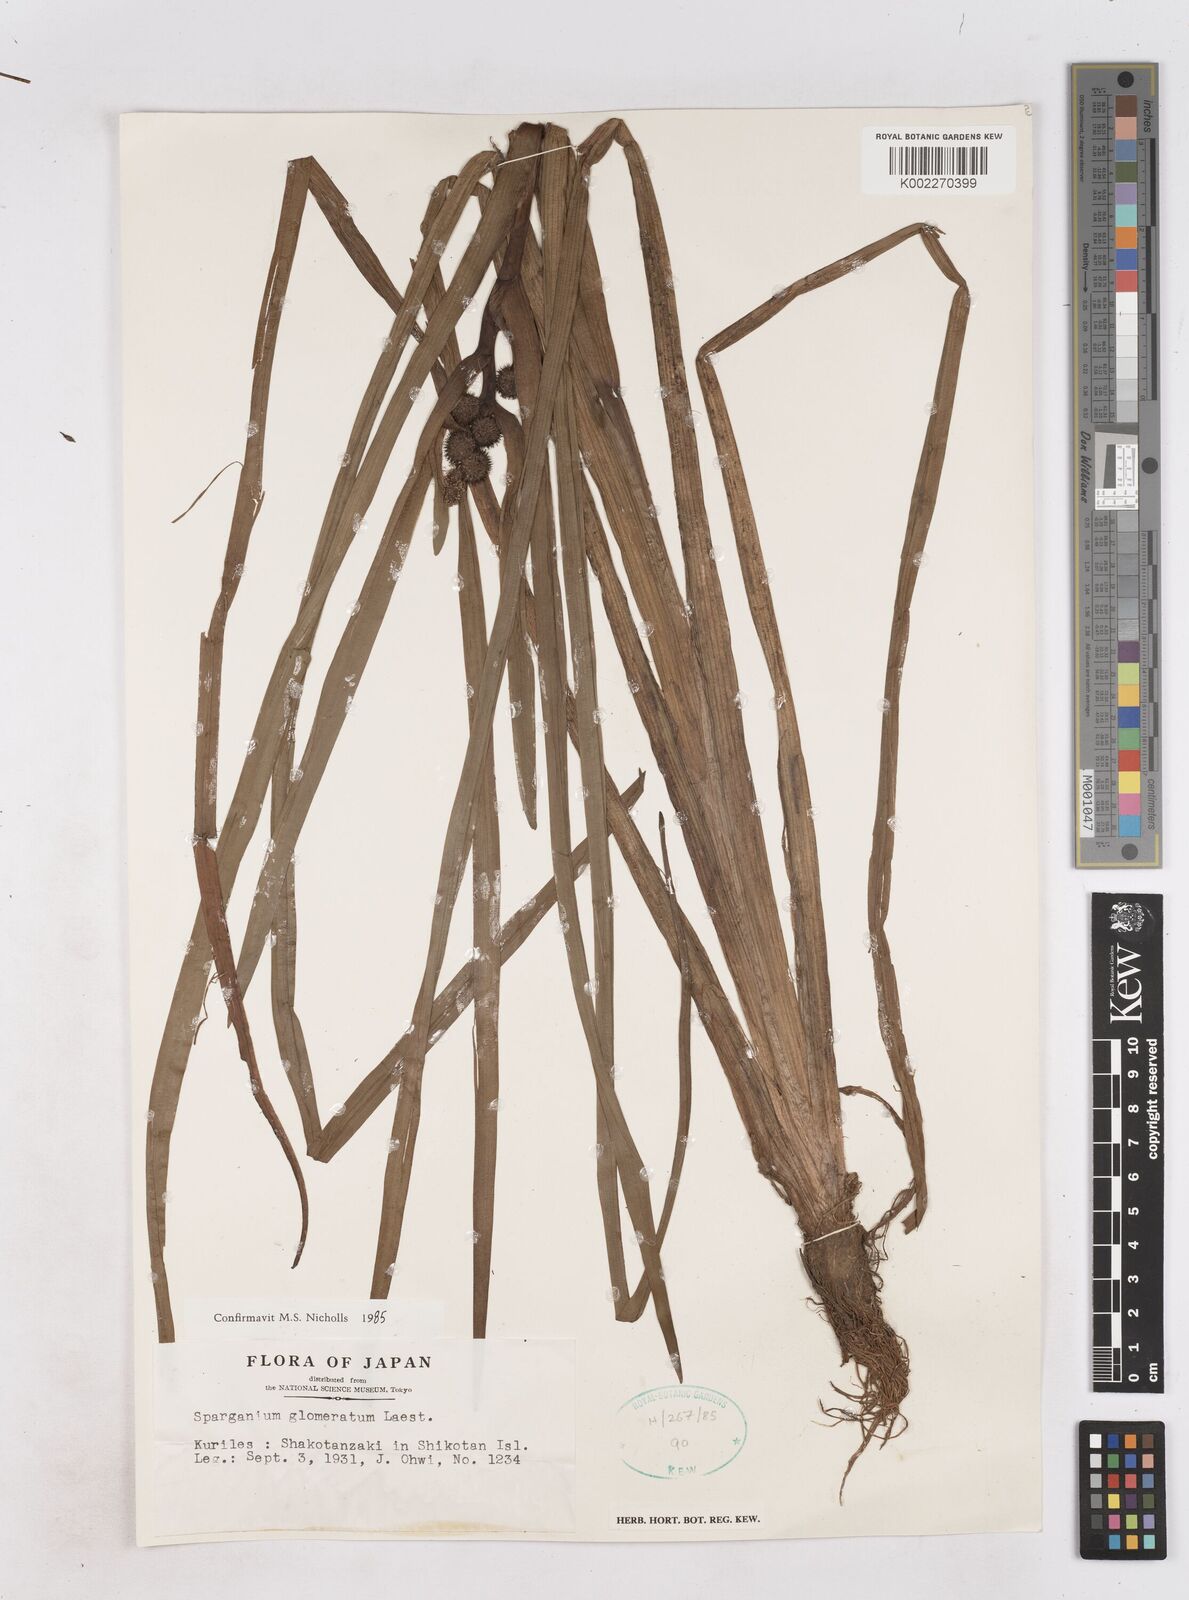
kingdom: Plantae
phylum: Tracheophyta
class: Liliopsida
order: Poales
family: Typhaceae
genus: Sparganium
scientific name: Sparganium glomeratum
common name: Clustered burreed
